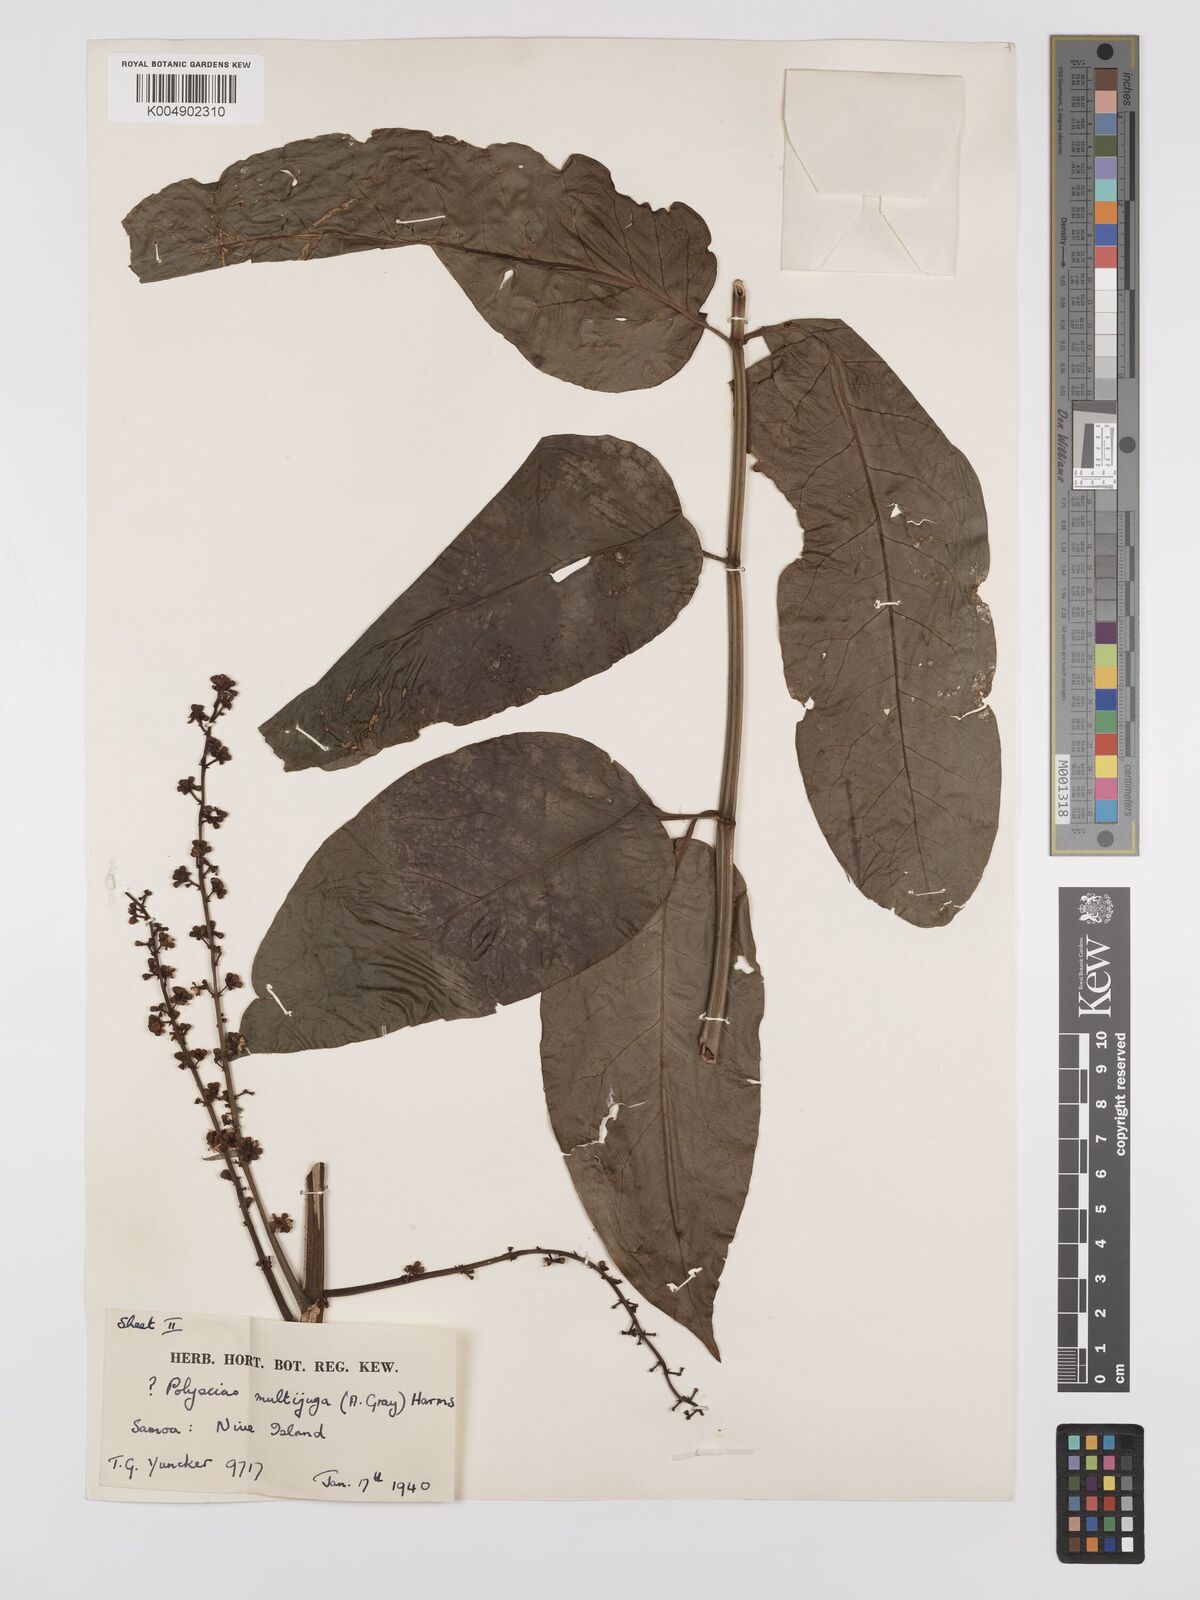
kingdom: Plantae
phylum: Tracheophyta
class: Magnoliopsida
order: Apiales
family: Araliaceae
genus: Polyscias
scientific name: Polyscias multijuga
